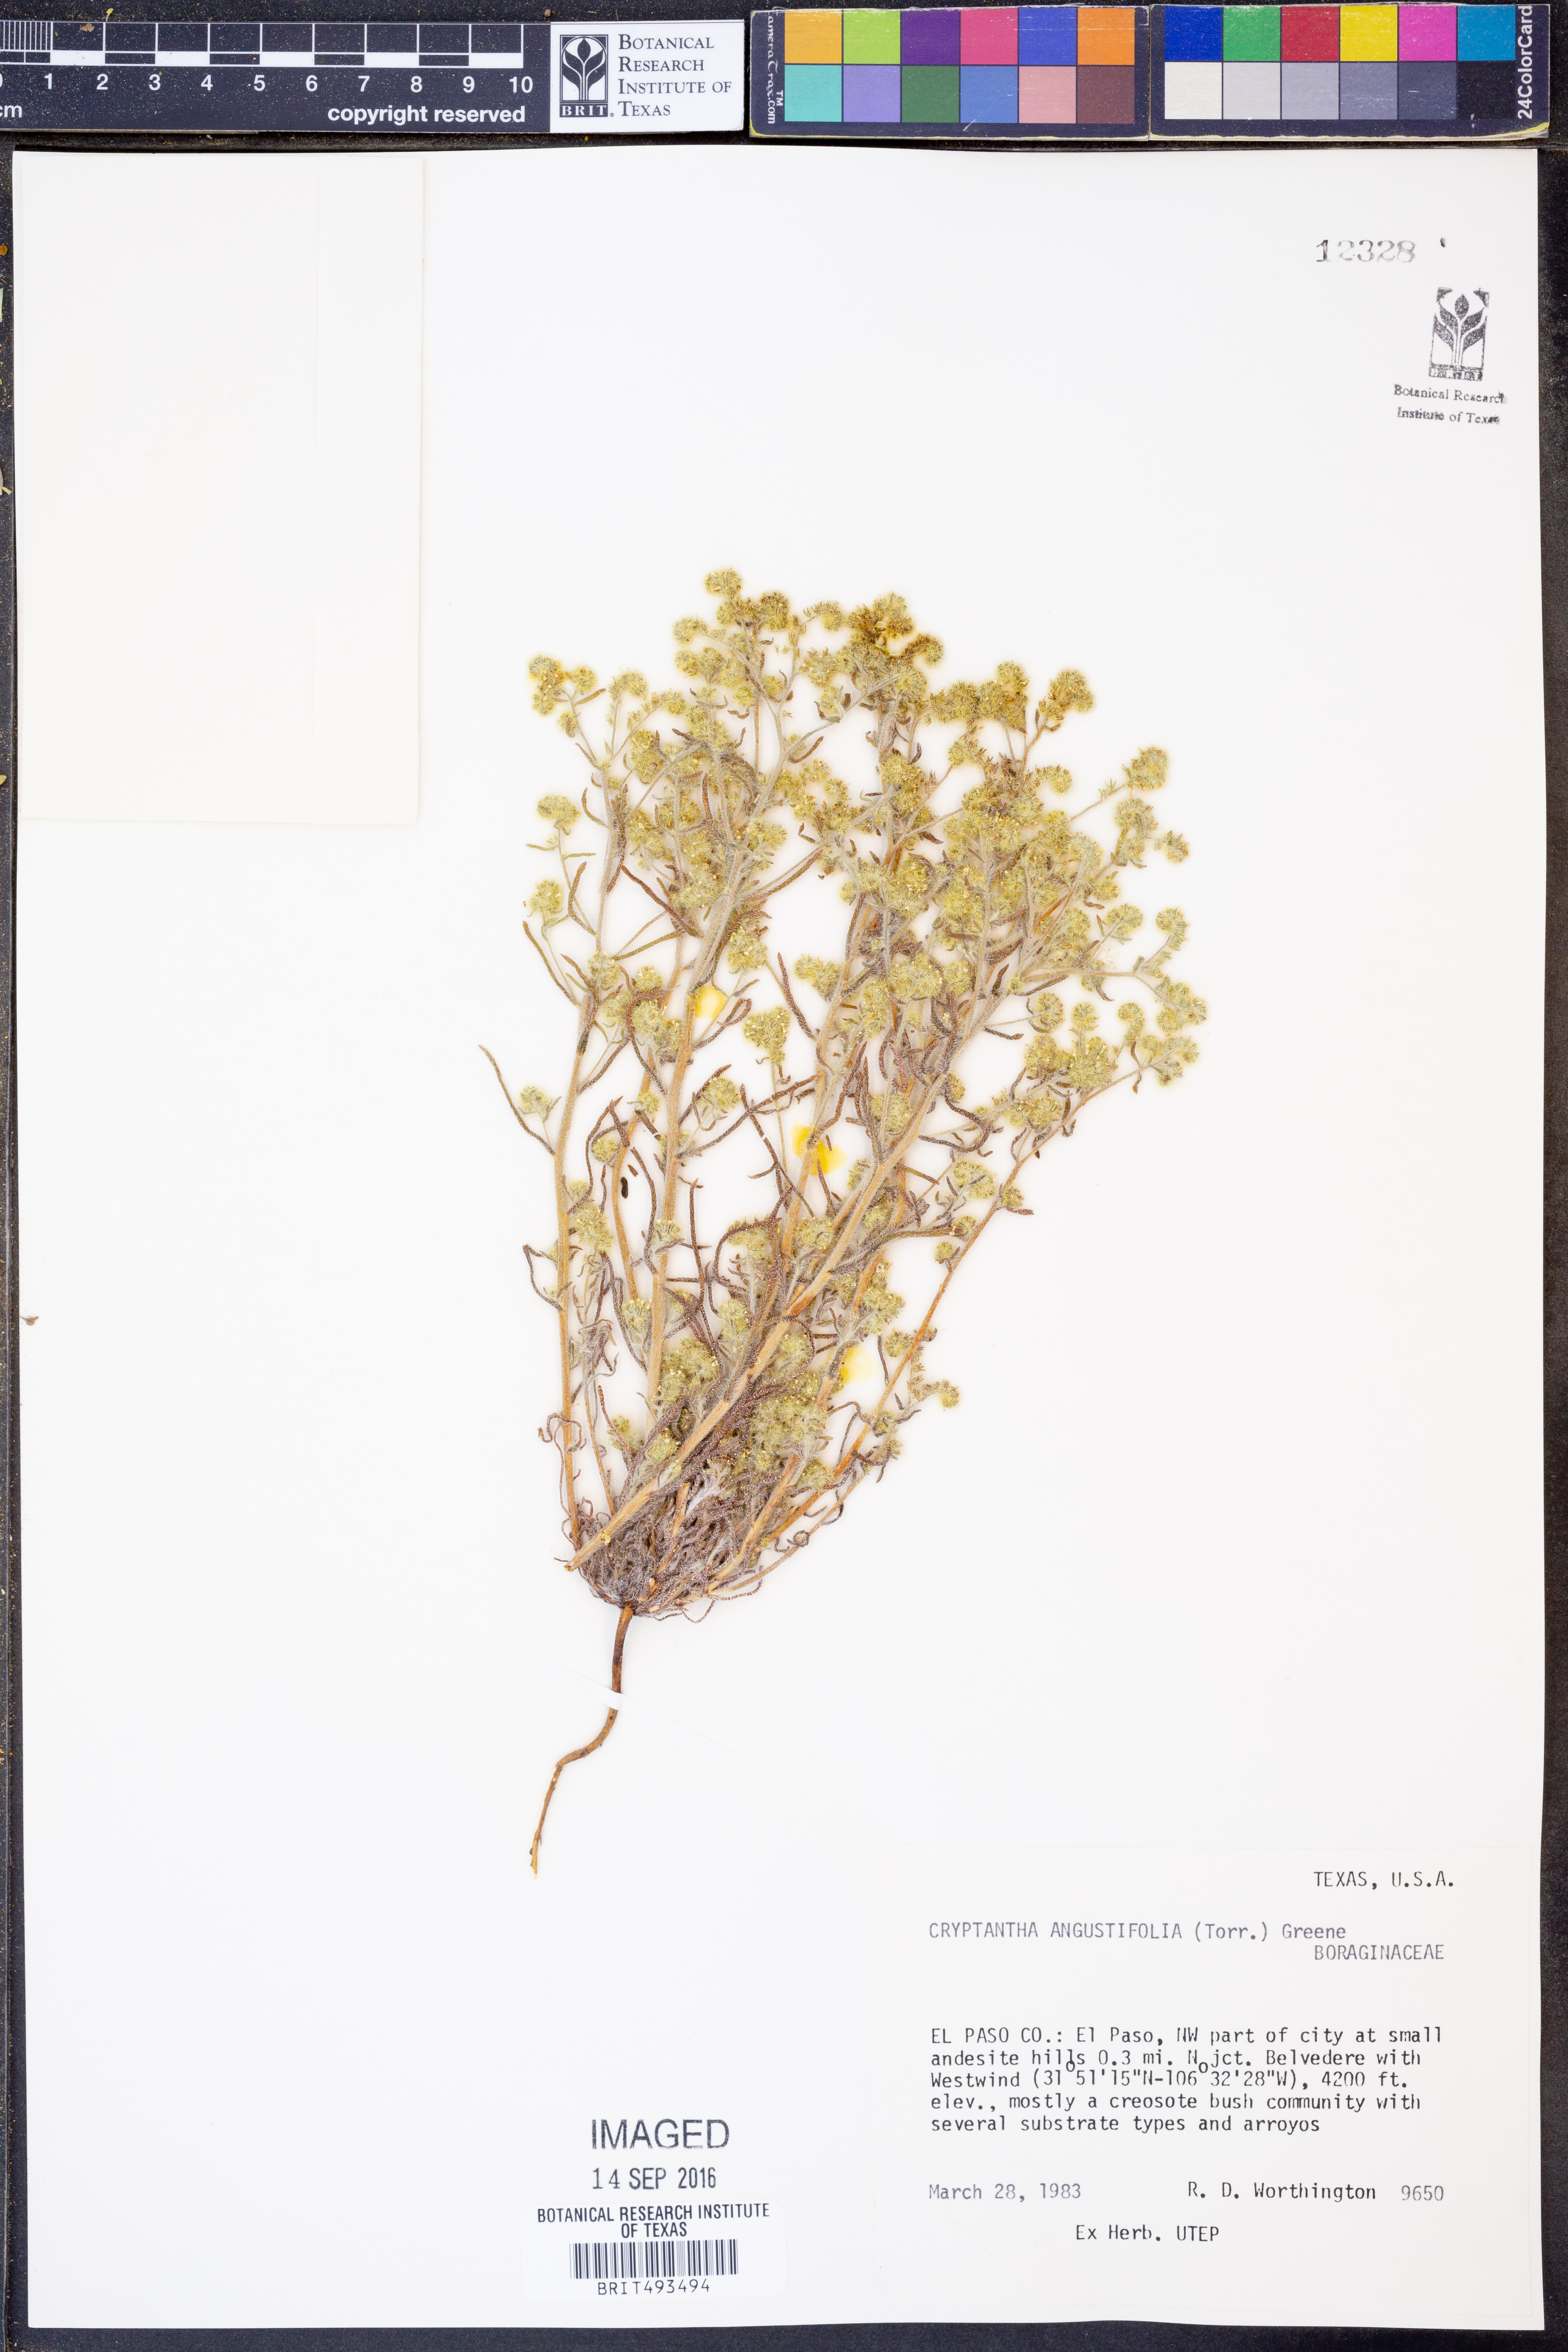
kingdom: Plantae
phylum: Tracheophyta
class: Magnoliopsida
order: Boraginales
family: Boraginaceae
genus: Johnstonella
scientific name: Johnstonella angustifolia
